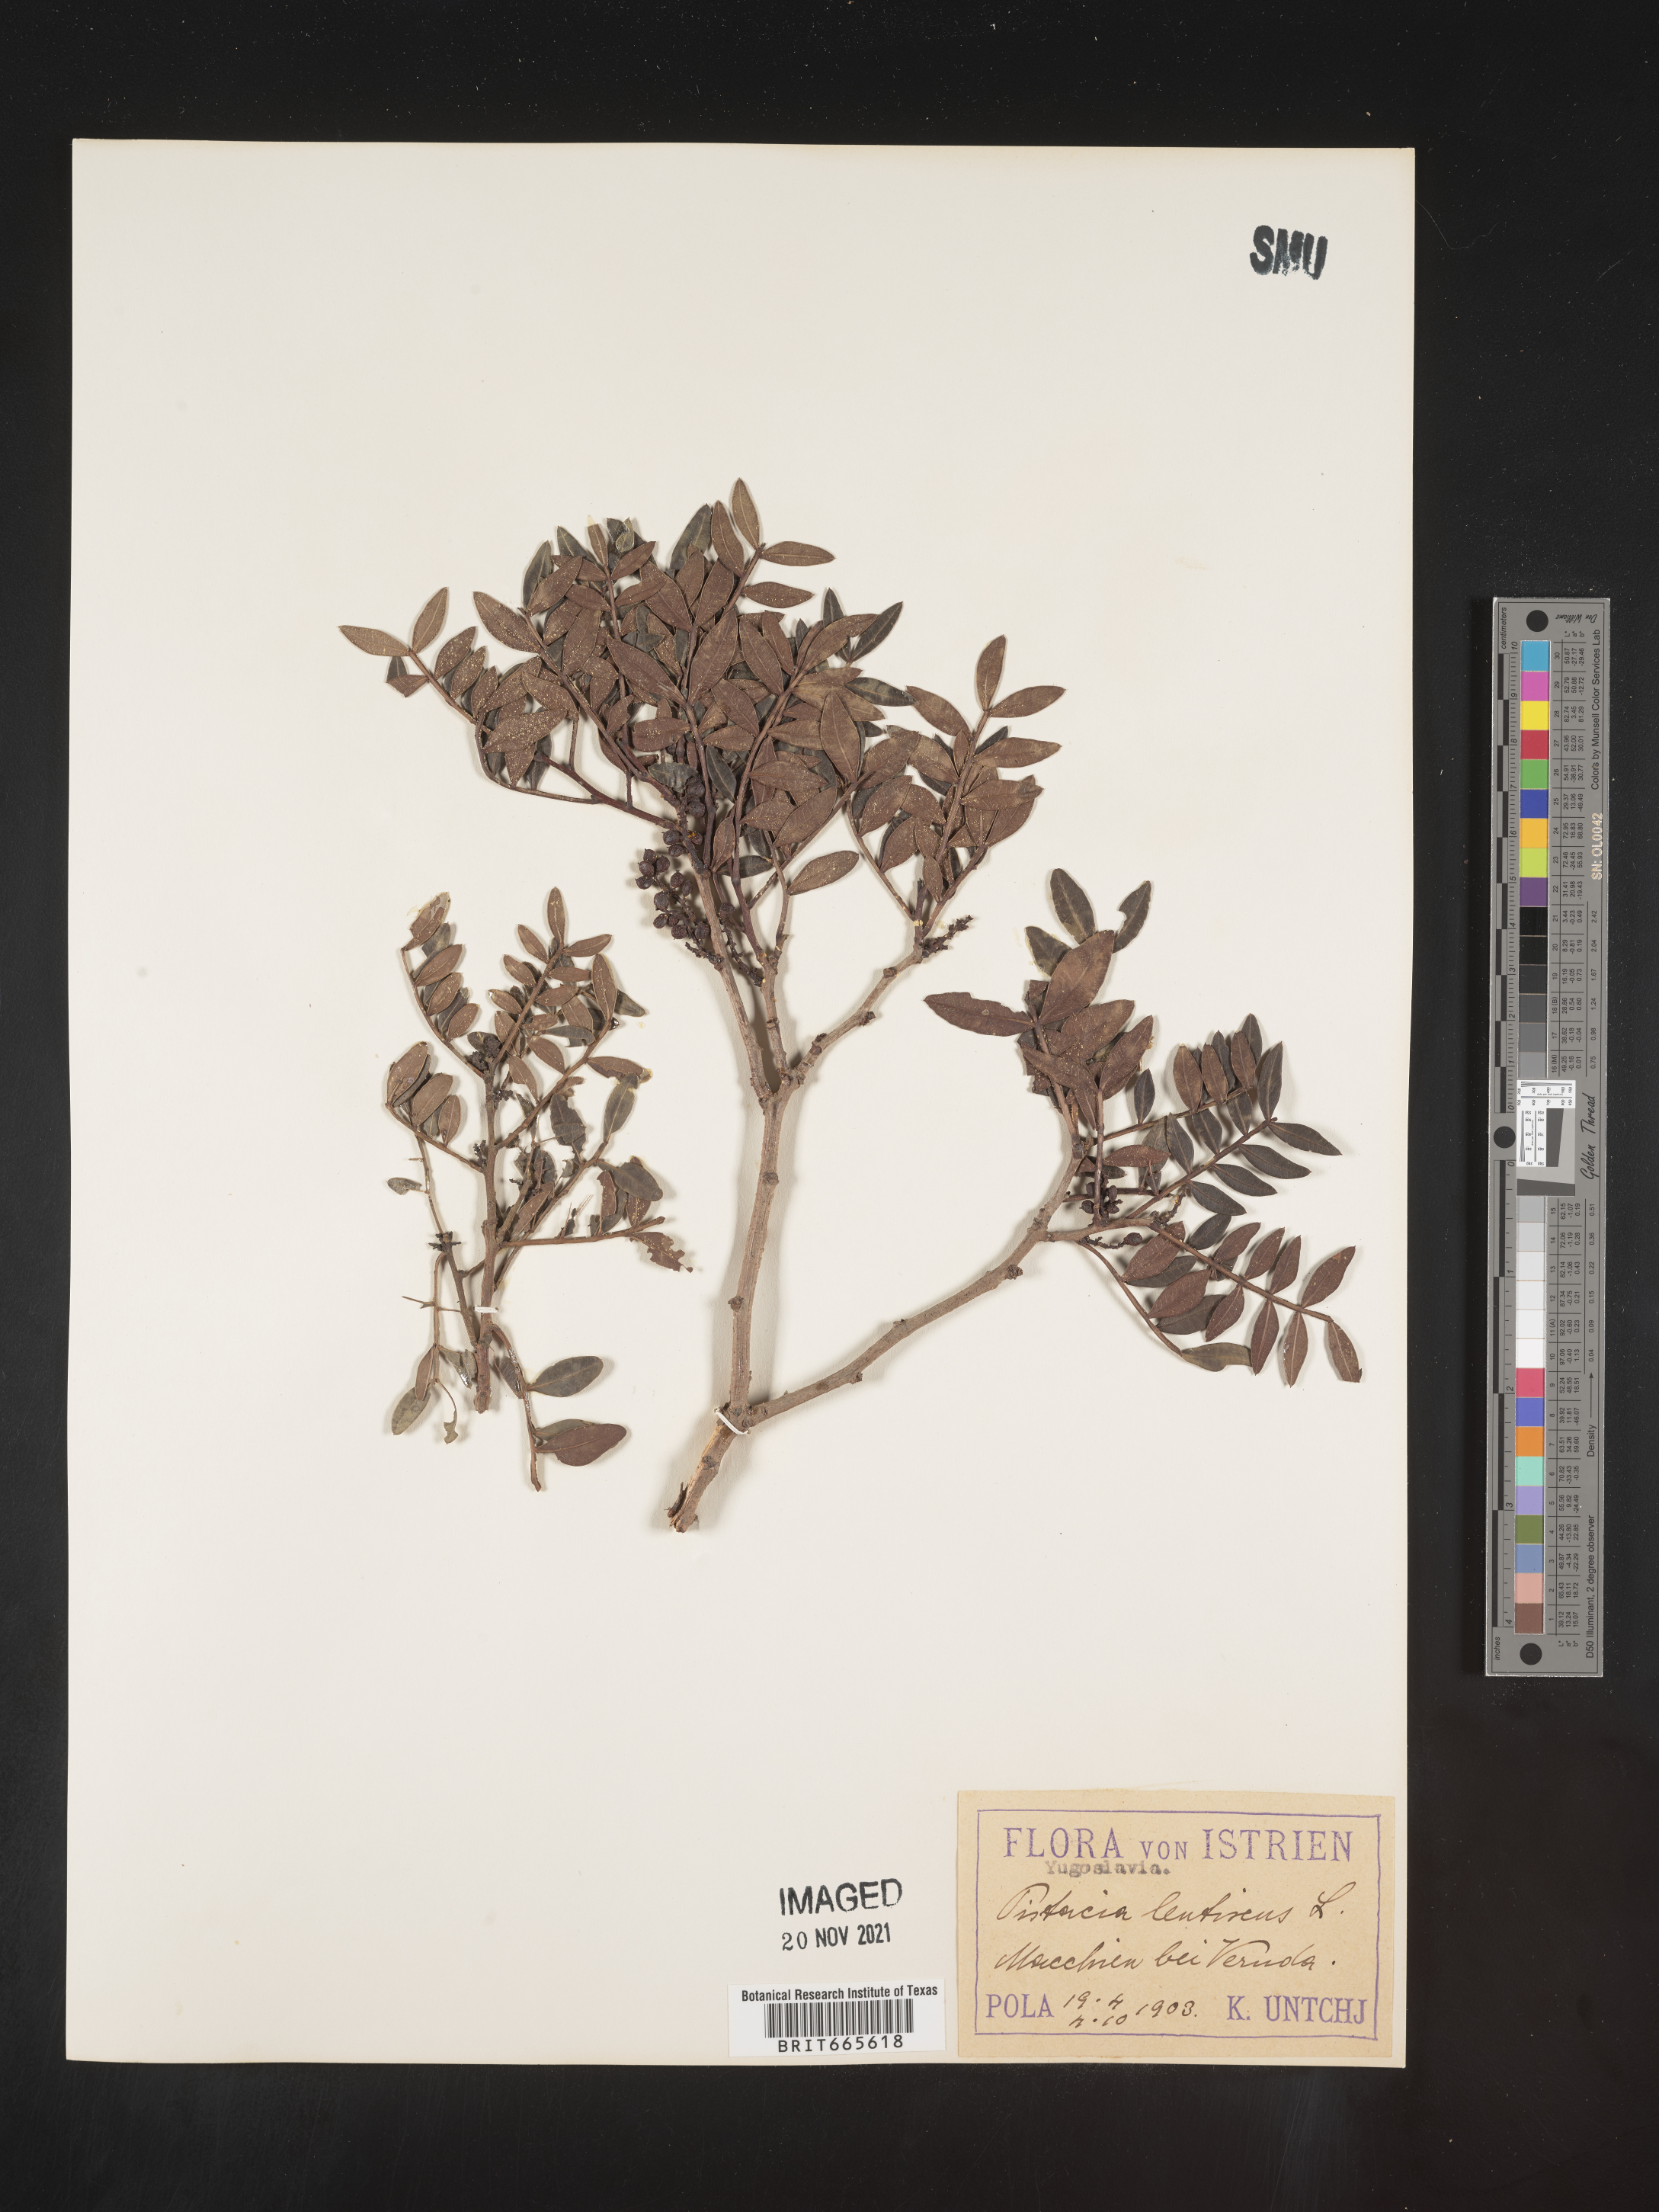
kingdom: Plantae
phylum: Tracheophyta
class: Magnoliopsida
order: Sapindales
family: Anacardiaceae
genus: Pistacia
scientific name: Pistacia
